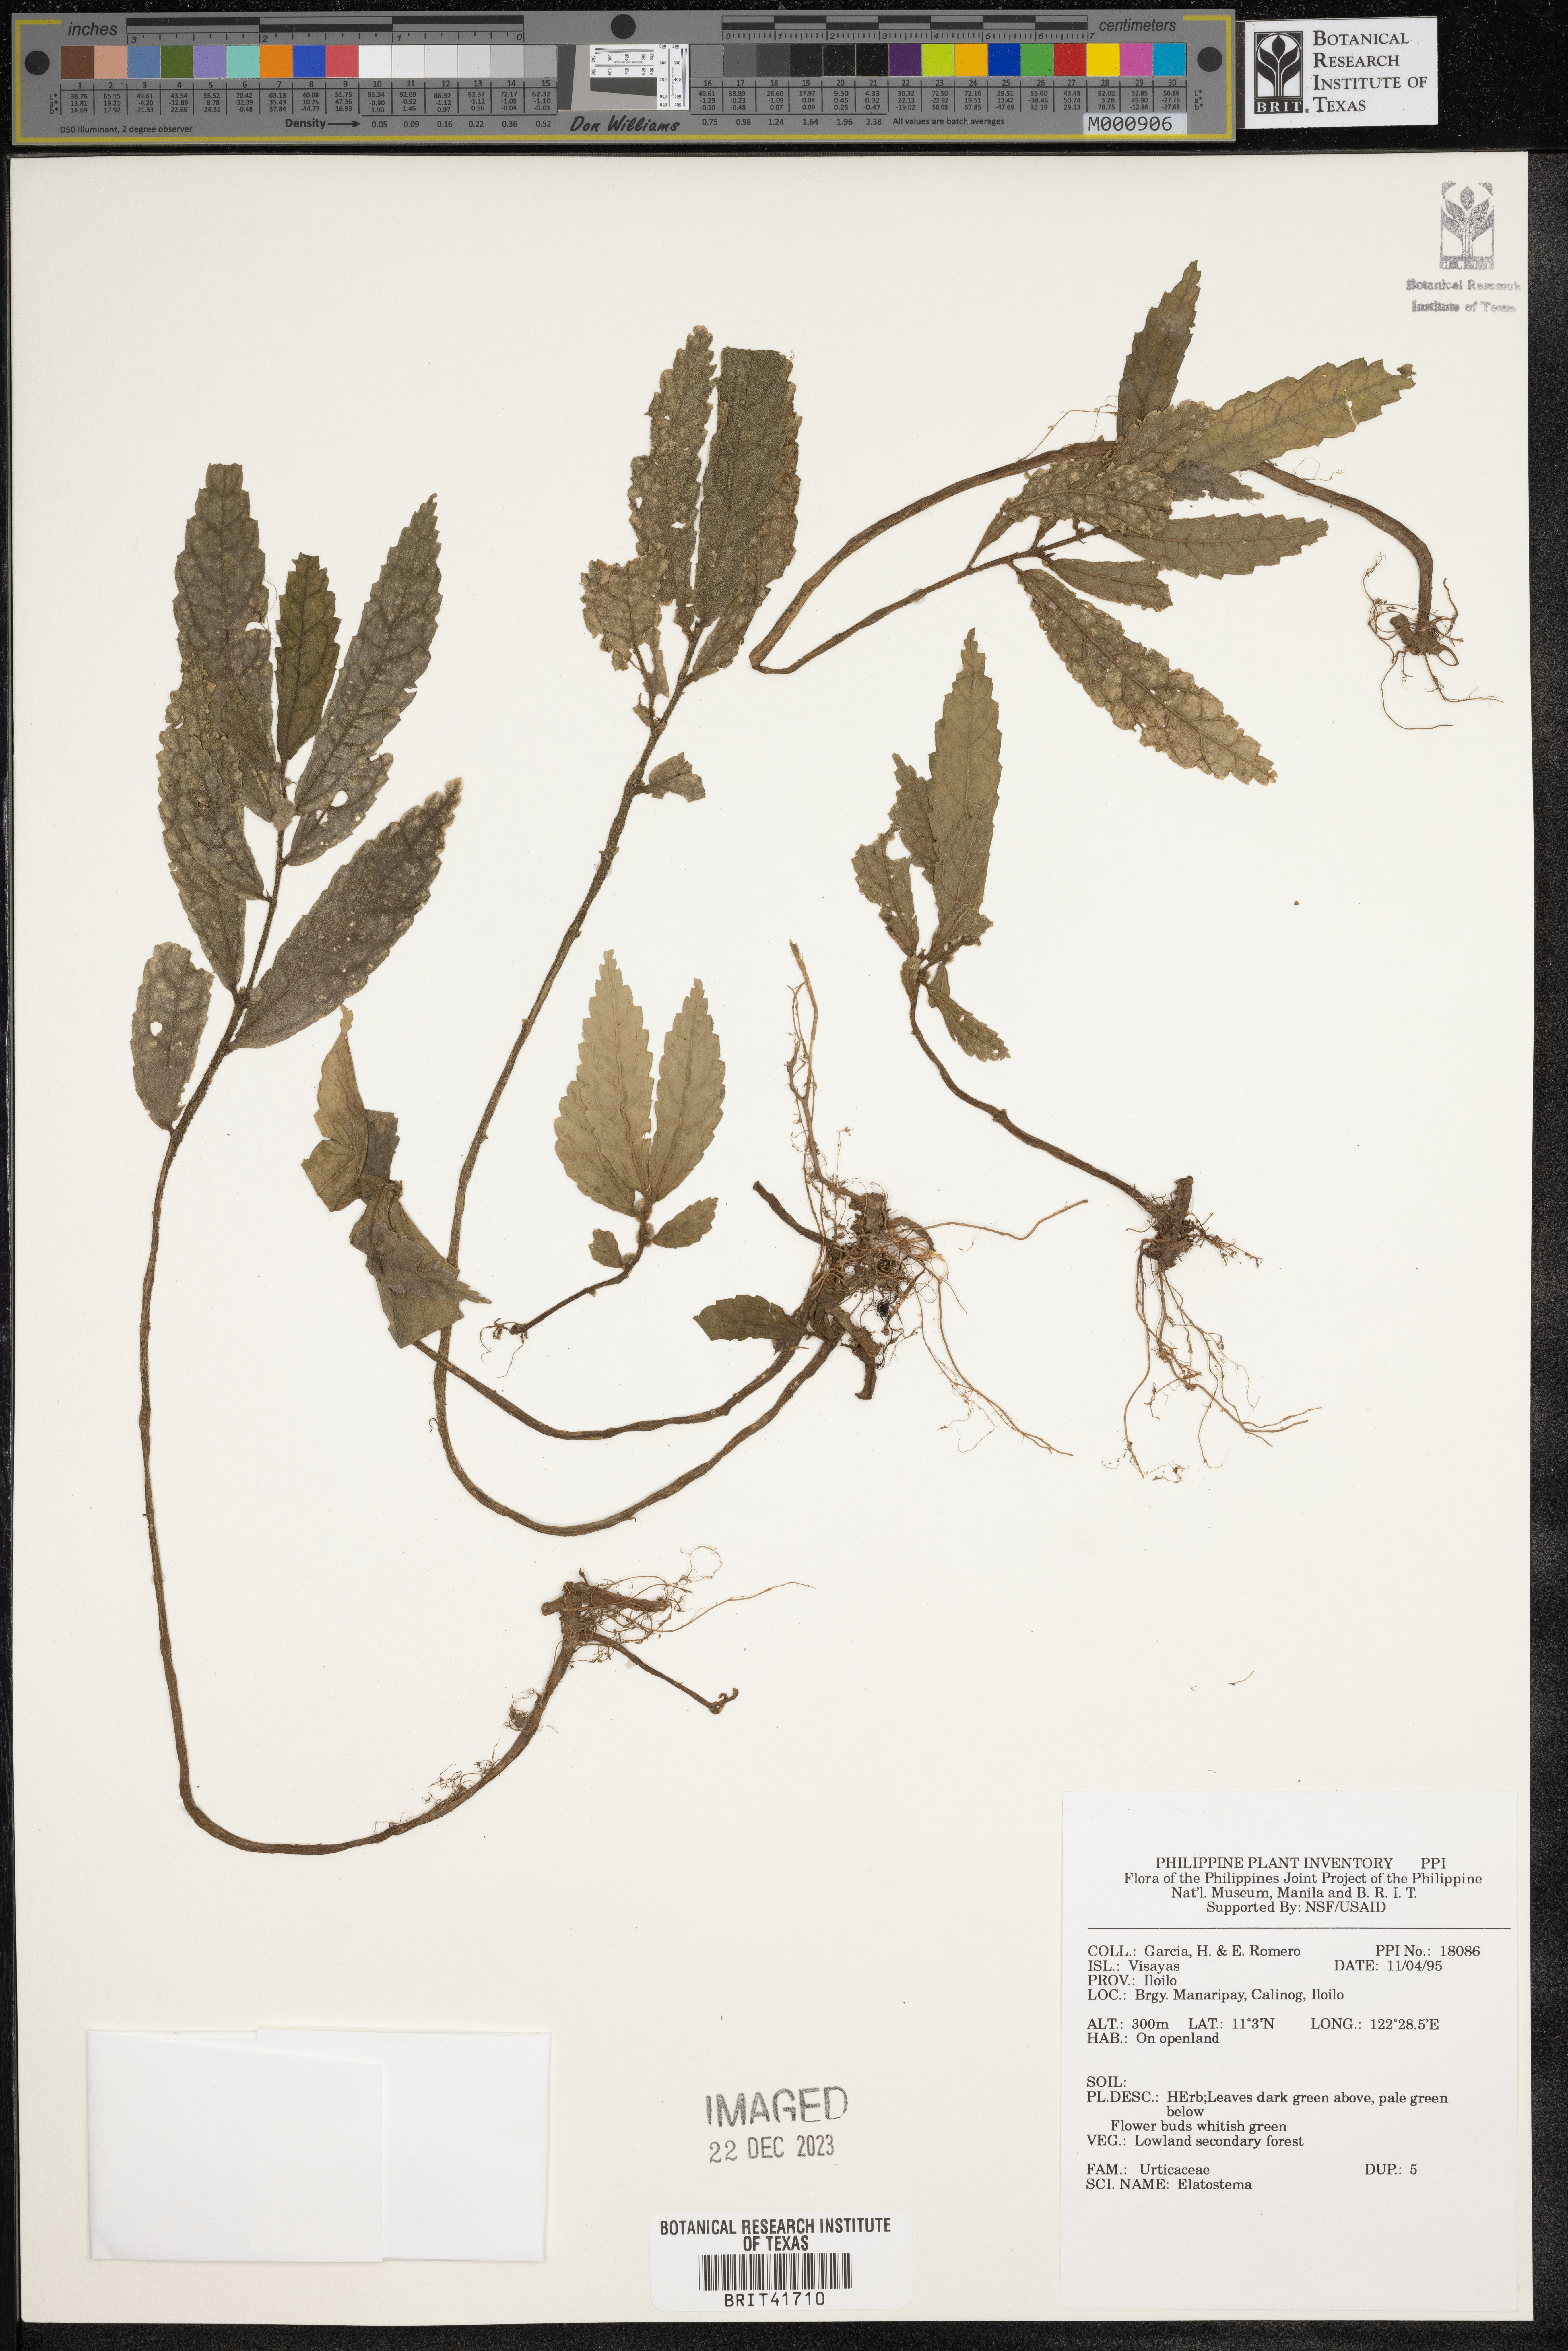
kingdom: Plantae
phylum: Tracheophyta
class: Magnoliopsida
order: Rosales
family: Urticaceae
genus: Elatostema
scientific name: Elatostema
